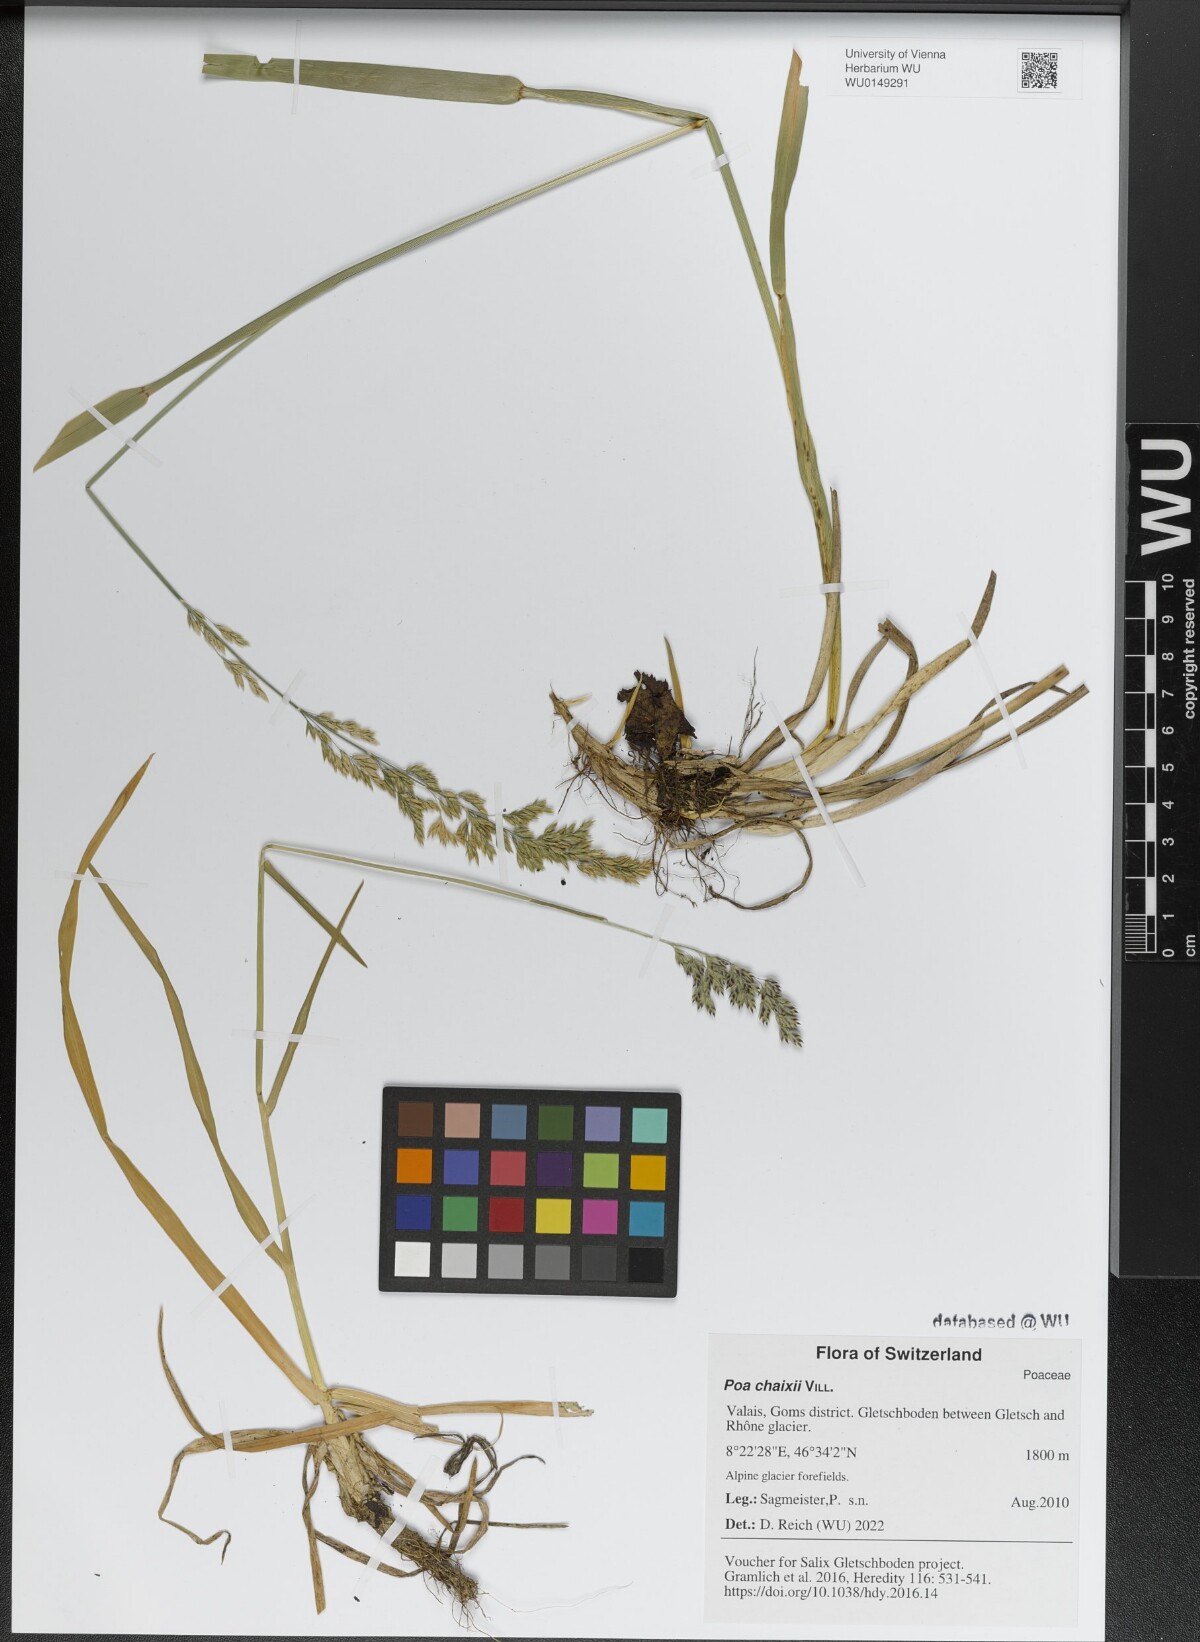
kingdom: Plantae
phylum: Tracheophyta
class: Liliopsida
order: Poales
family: Poaceae
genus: Poa
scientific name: Poa chaixii
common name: Broad-leaved meadow-grass
